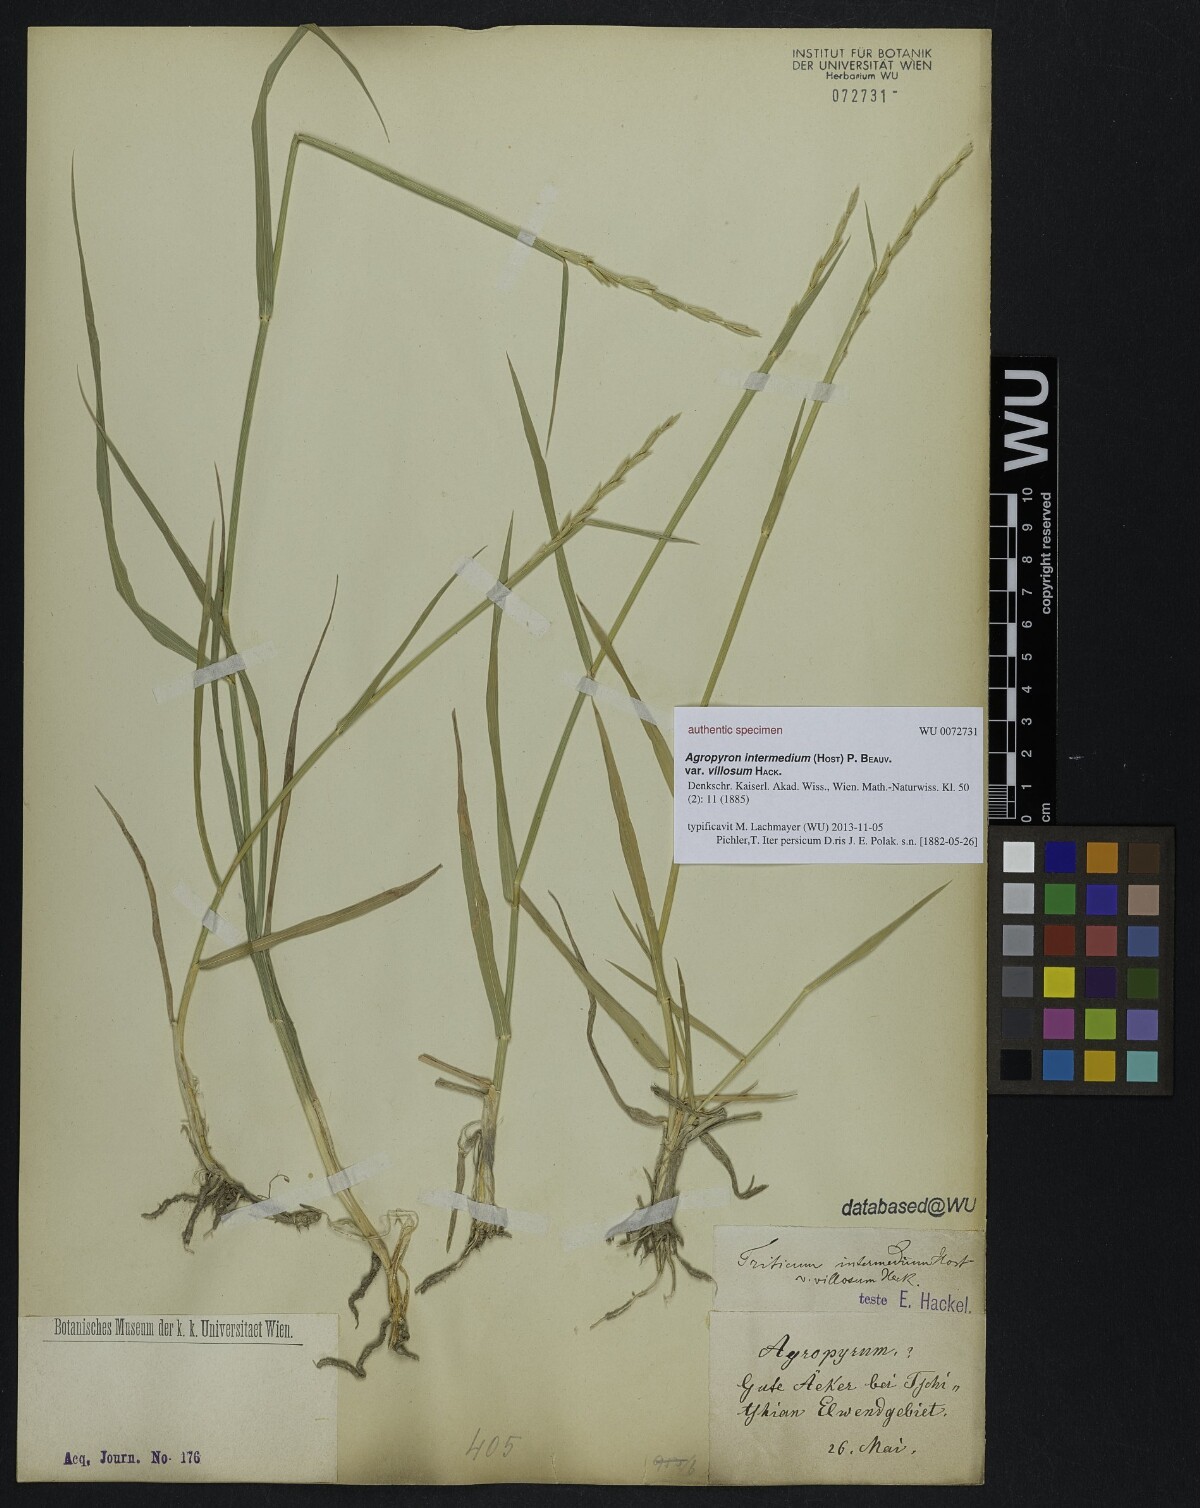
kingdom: Plantae
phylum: Tracheophyta
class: Liliopsida
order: Poales
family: Poaceae
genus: Thinopyrum
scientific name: Thinopyrum intermedium
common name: Intermediate wheatgrass
